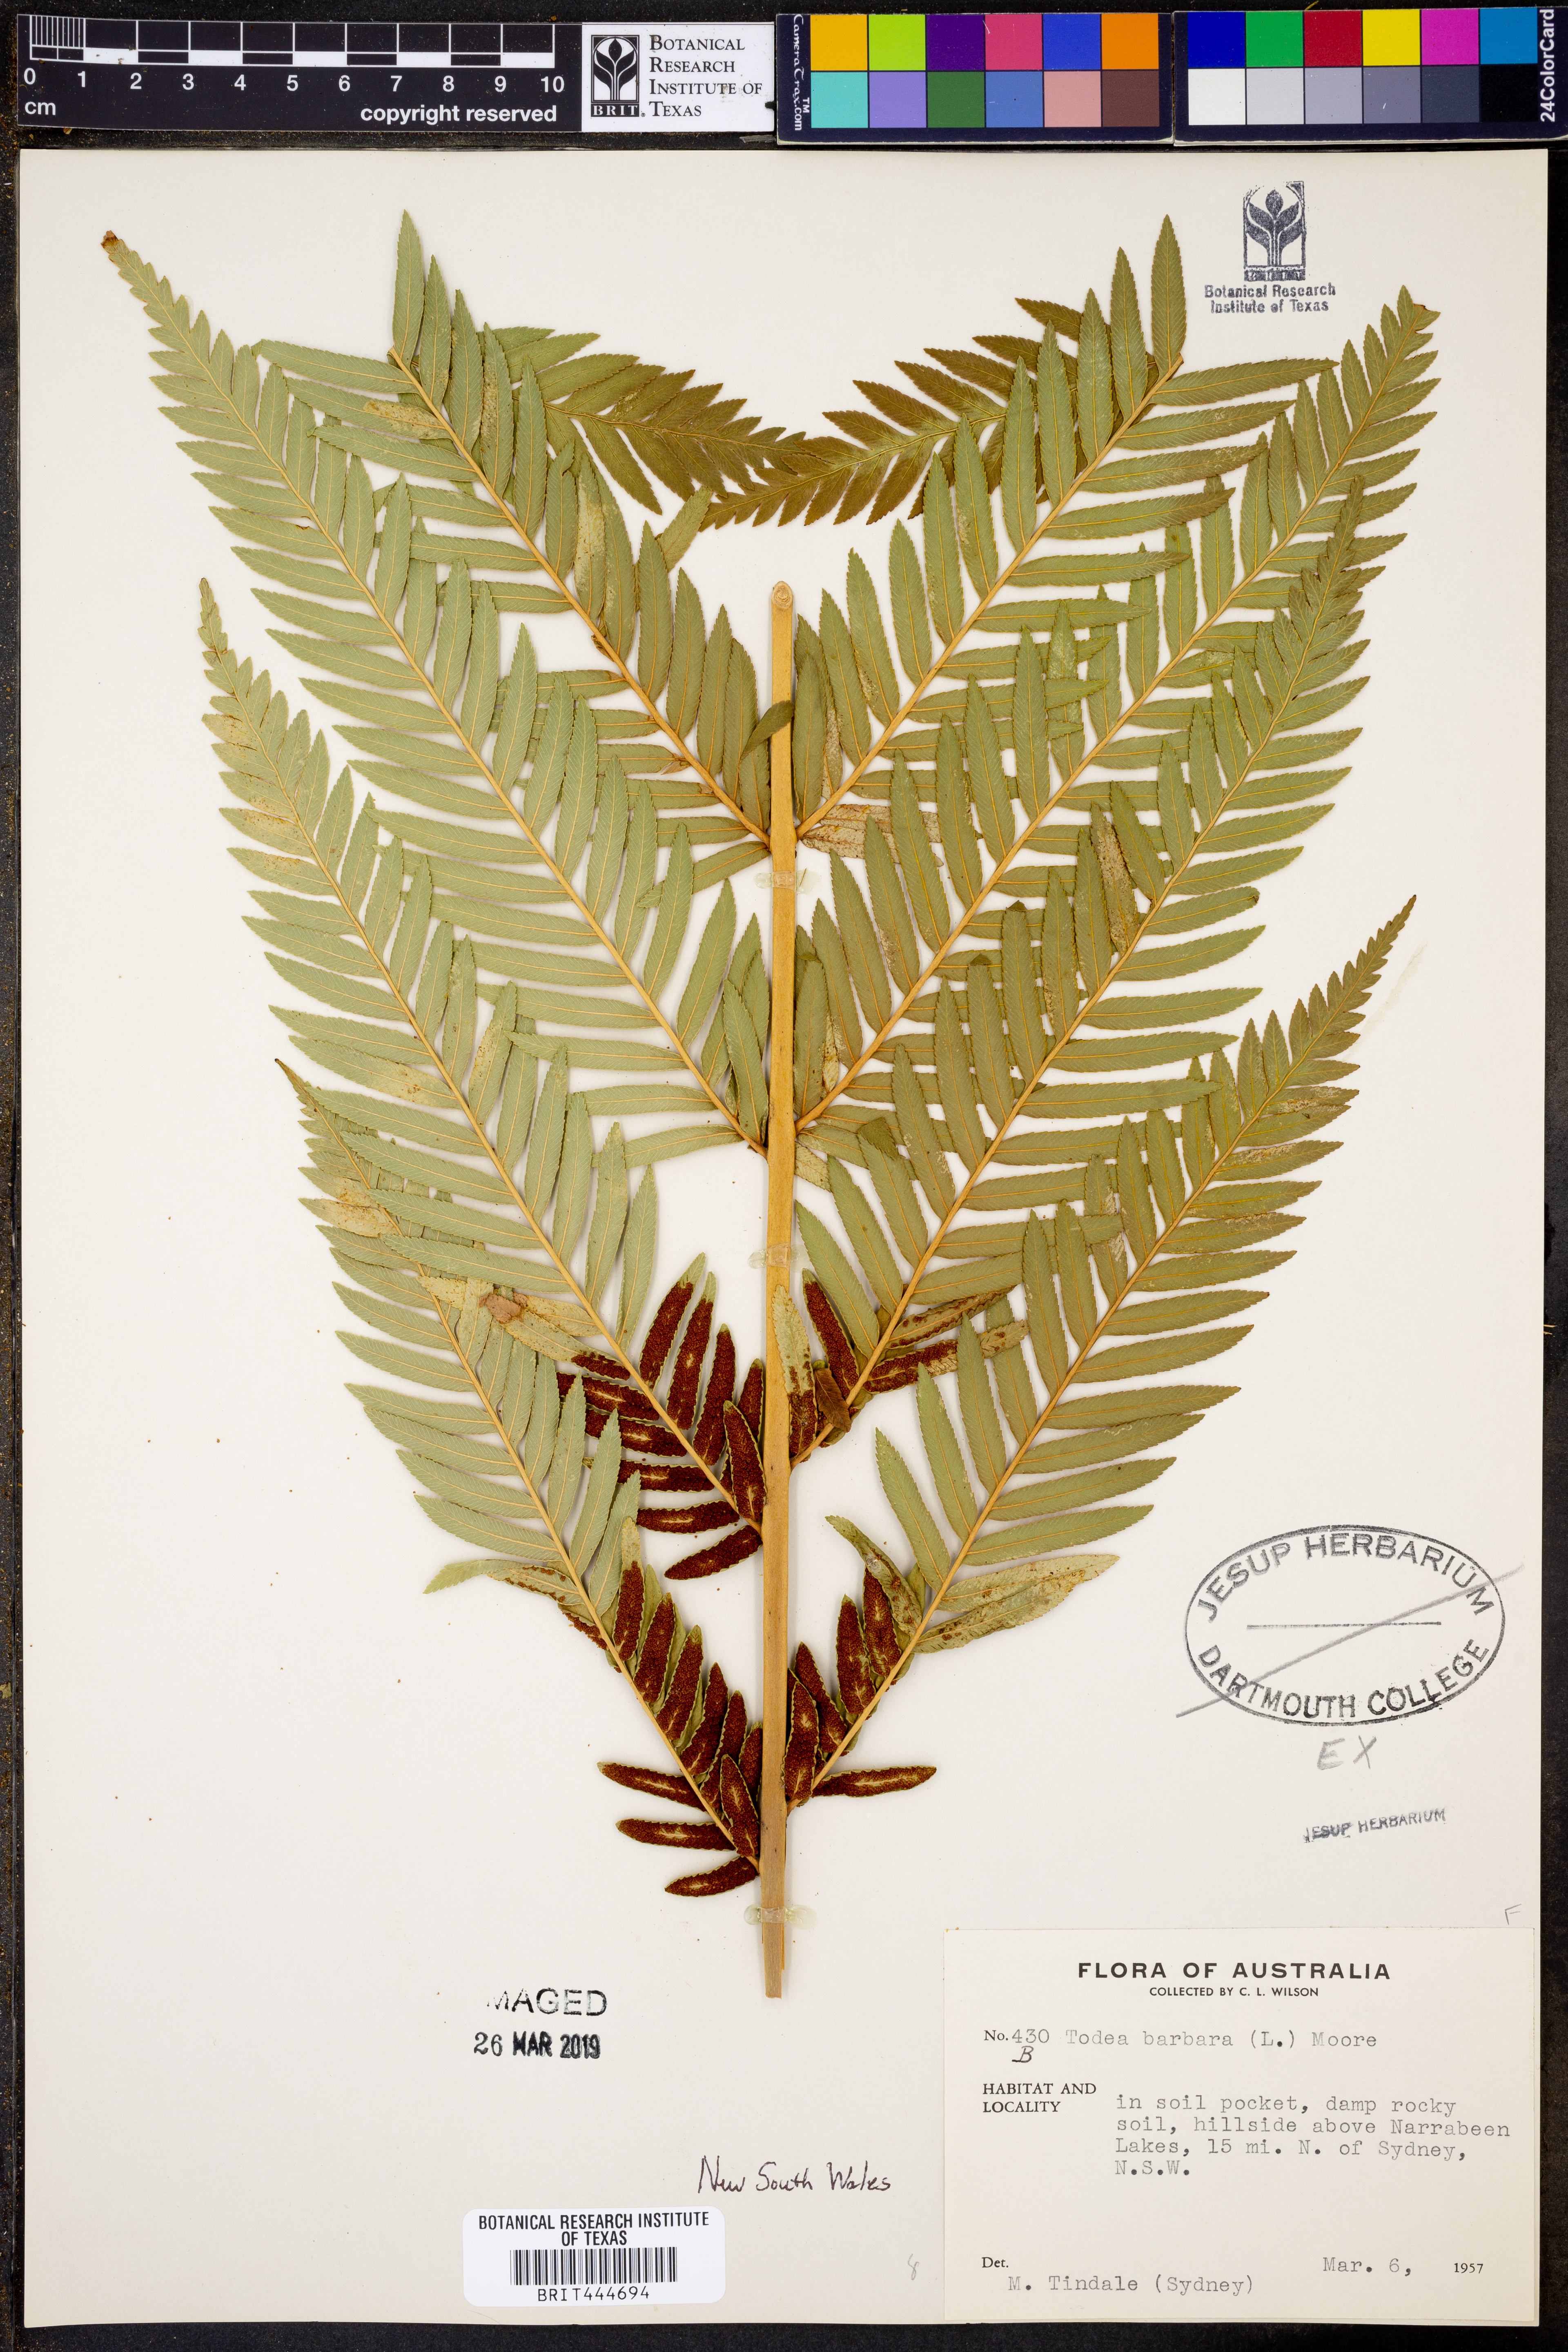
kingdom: Plantae
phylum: Tracheophyta
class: Polypodiopsida
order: Osmundales
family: Osmundaceae
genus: Todea
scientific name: Todea barbara
